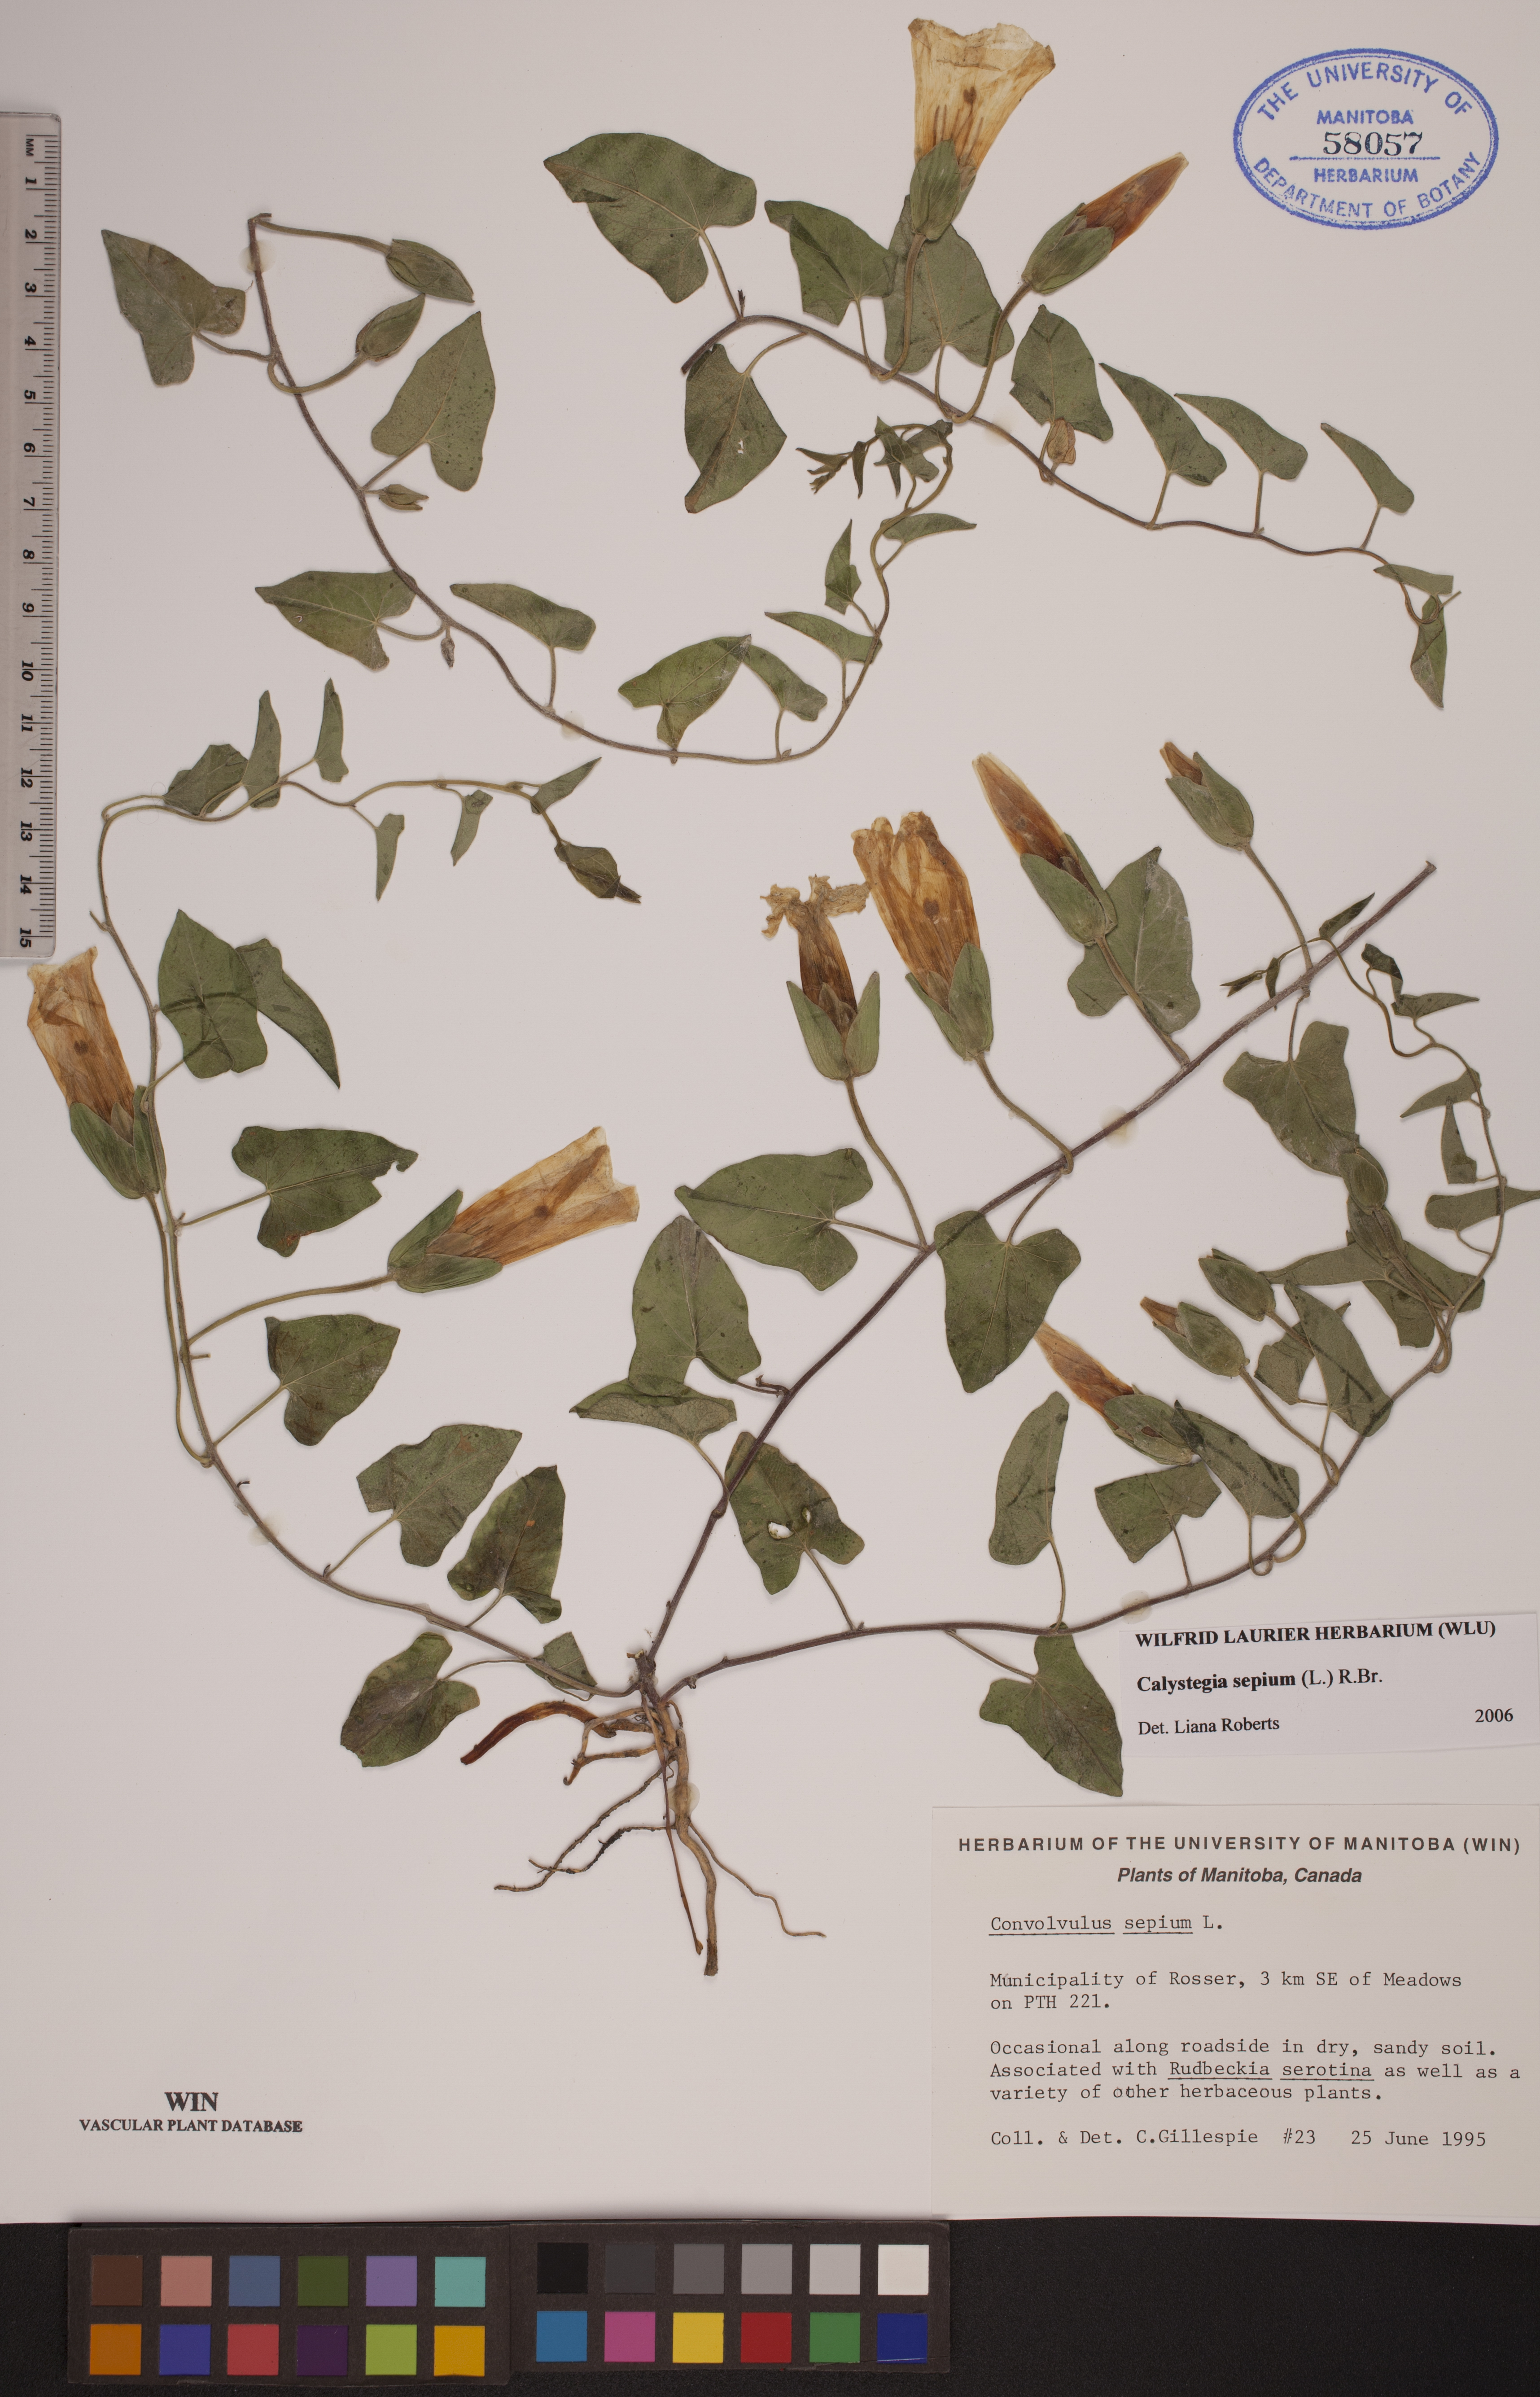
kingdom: Plantae
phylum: Tracheophyta
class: Magnoliopsida
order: Solanales
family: Convolvulaceae
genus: Calystegia
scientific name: Calystegia macounii
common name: Macoun's bindweed
